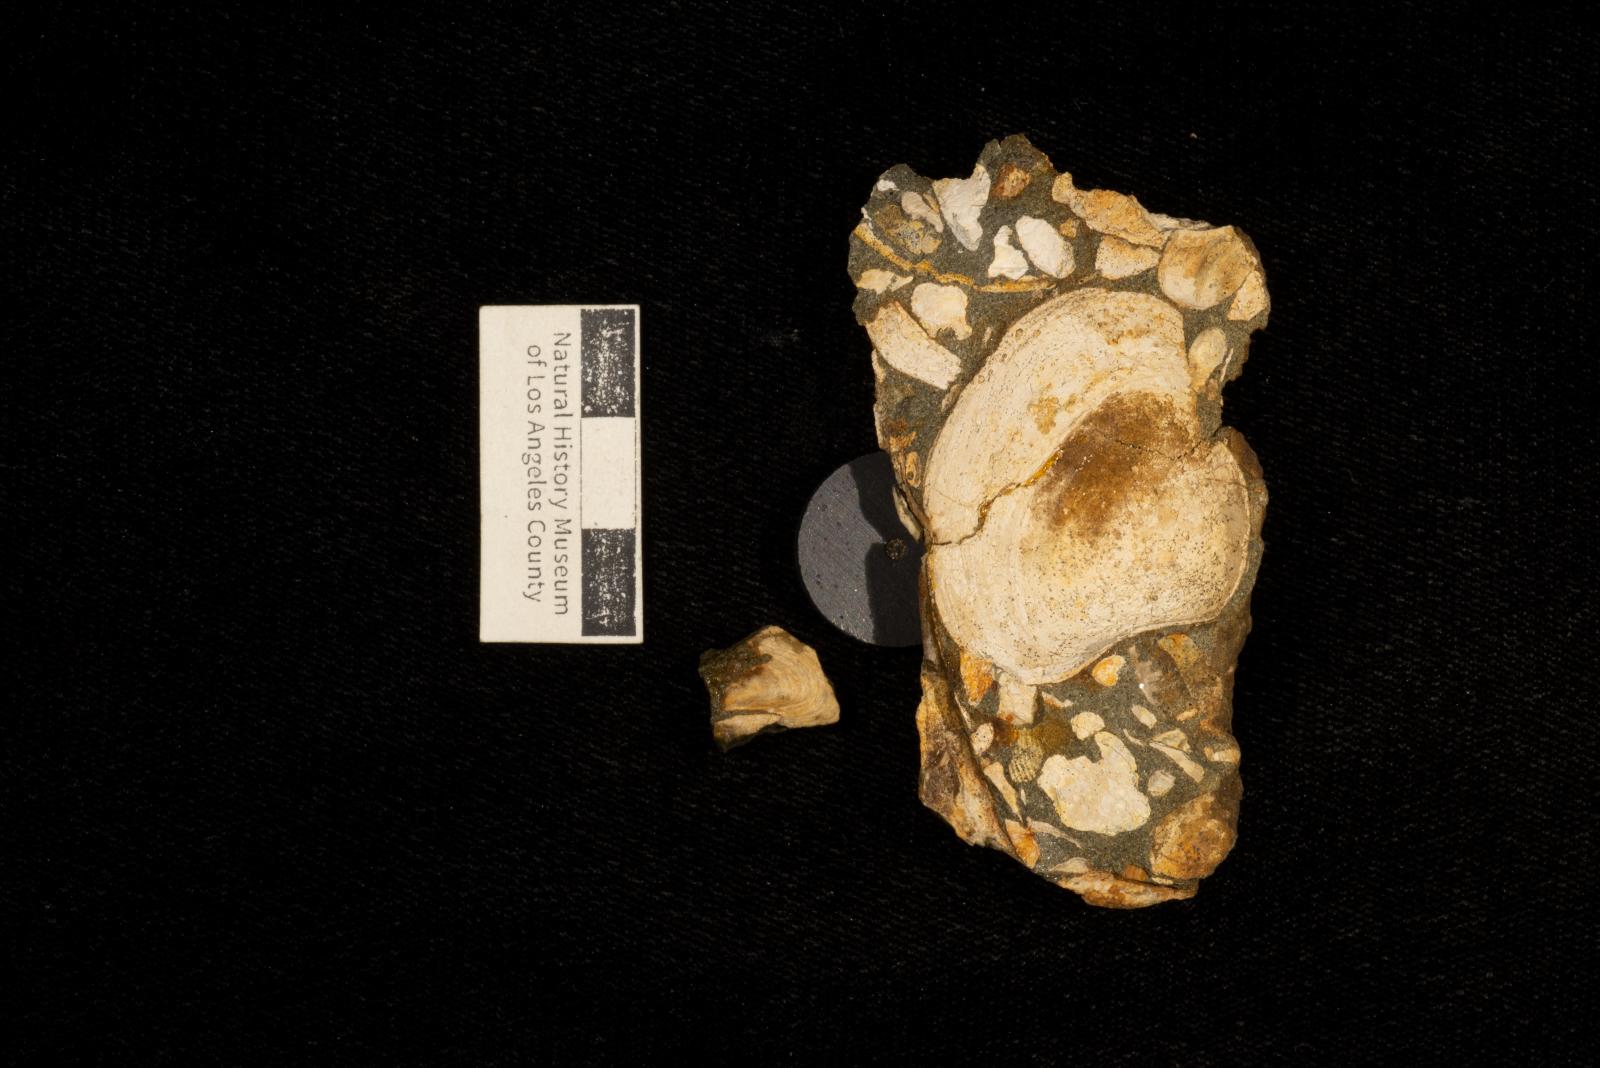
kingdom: Animalia
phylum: Mollusca
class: Bivalvia
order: Myalinida
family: Inoceramidae
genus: Inoceramus
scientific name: Inoceramus
